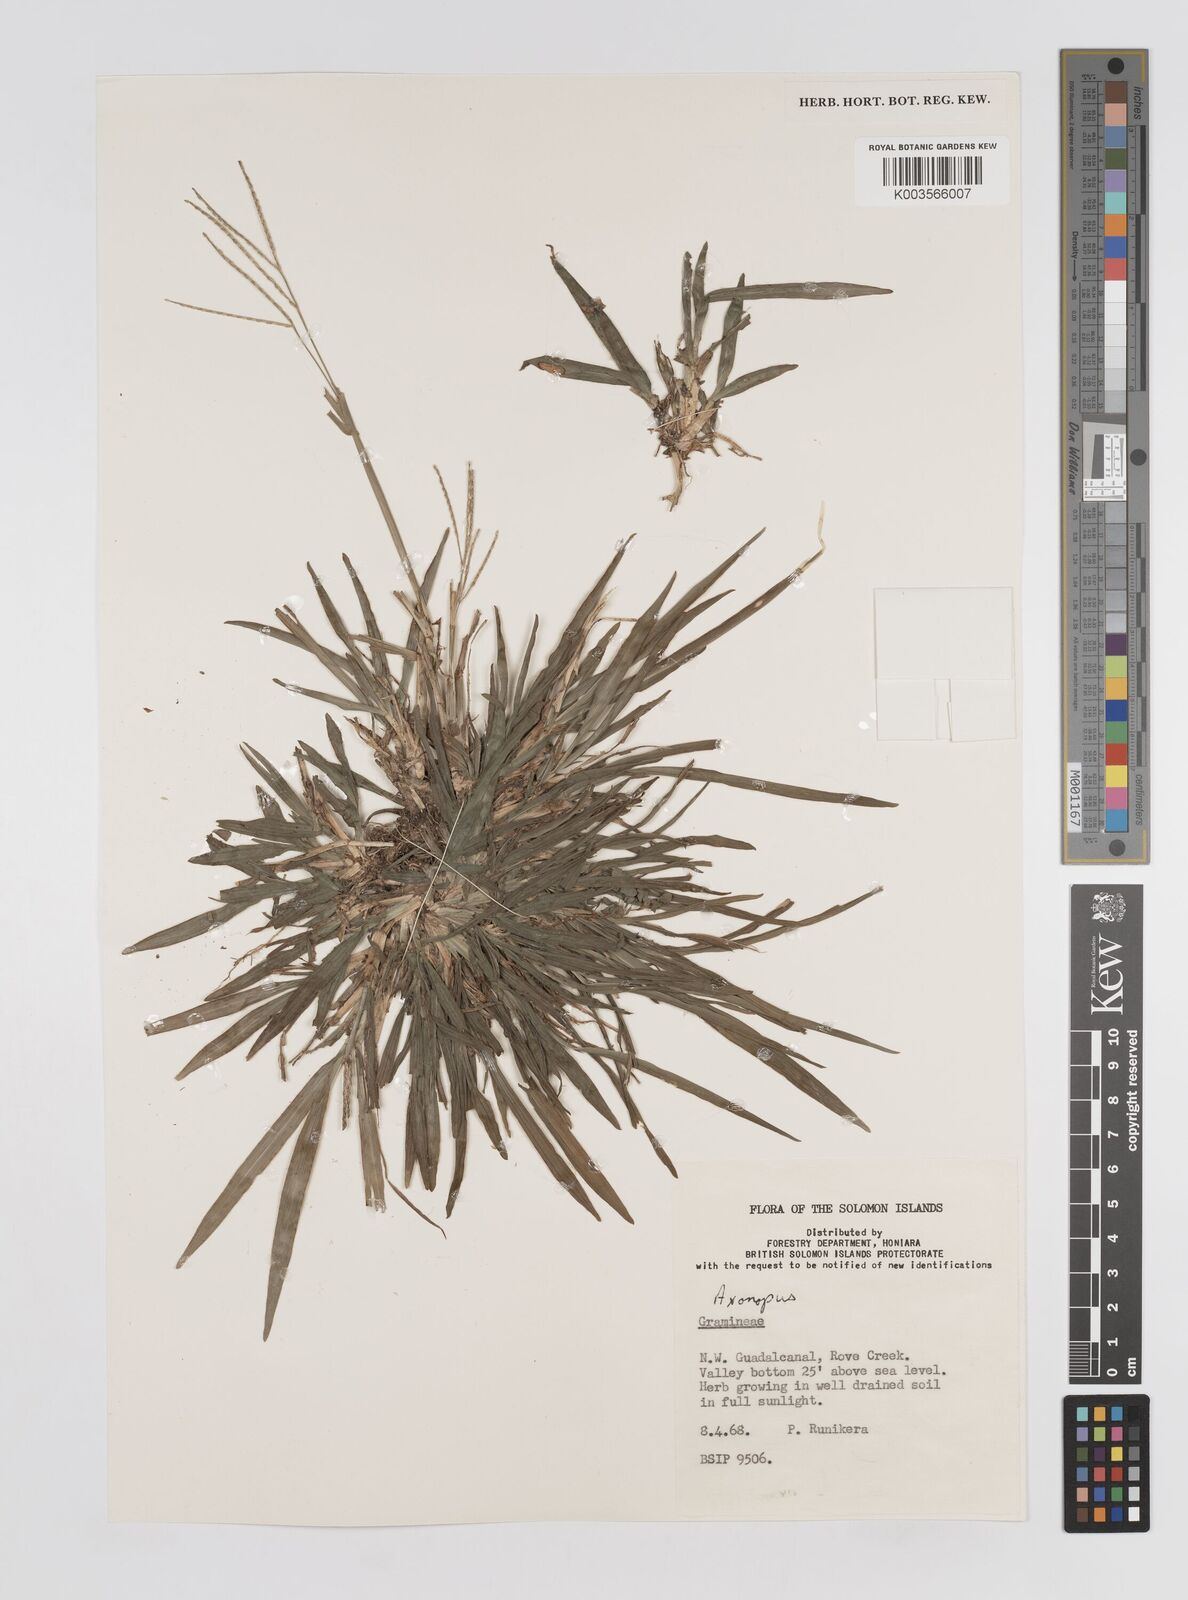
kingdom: Plantae
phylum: Tracheophyta
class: Liliopsida
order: Poales
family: Poaceae
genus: Axonopus
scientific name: Axonopus compressus
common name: American carpet grass
